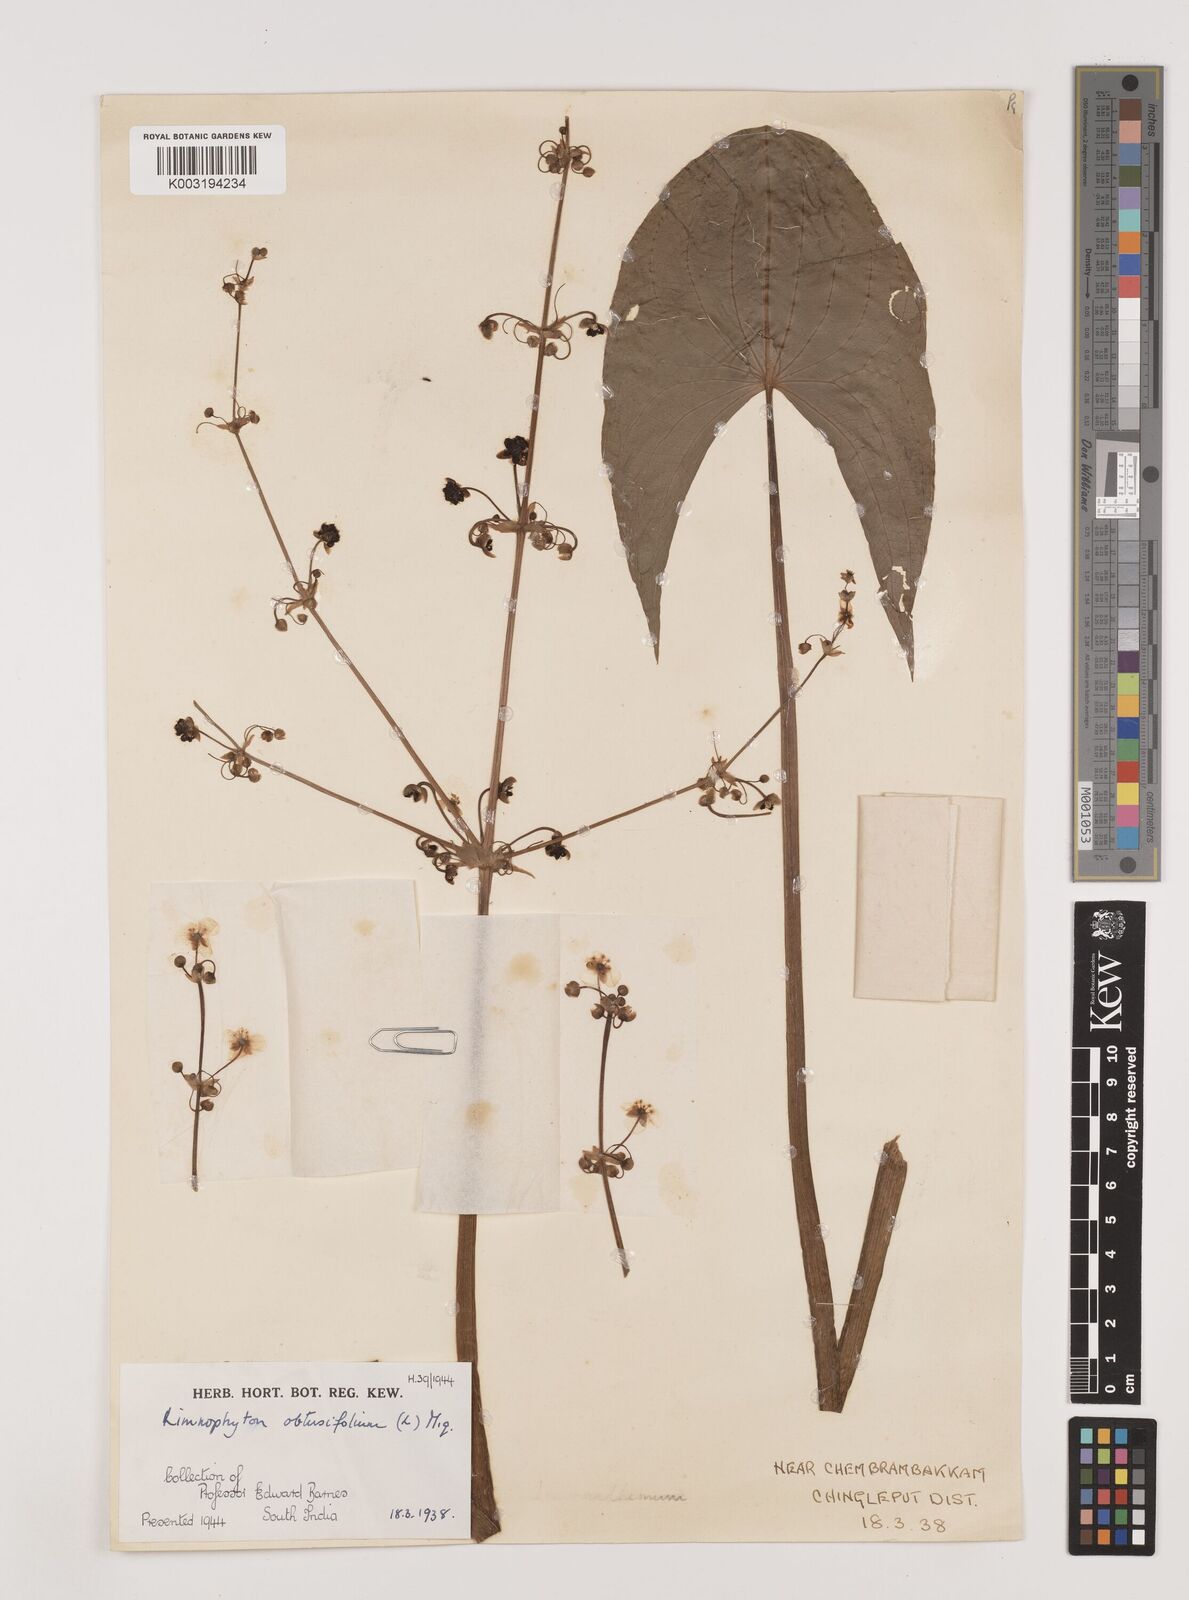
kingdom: Plantae
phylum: Tracheophyta
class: Liliopsida
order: Alismatales
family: Alismataceae
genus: Limnophyton
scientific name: Limnophyton obtusifolium
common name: Arrow head
